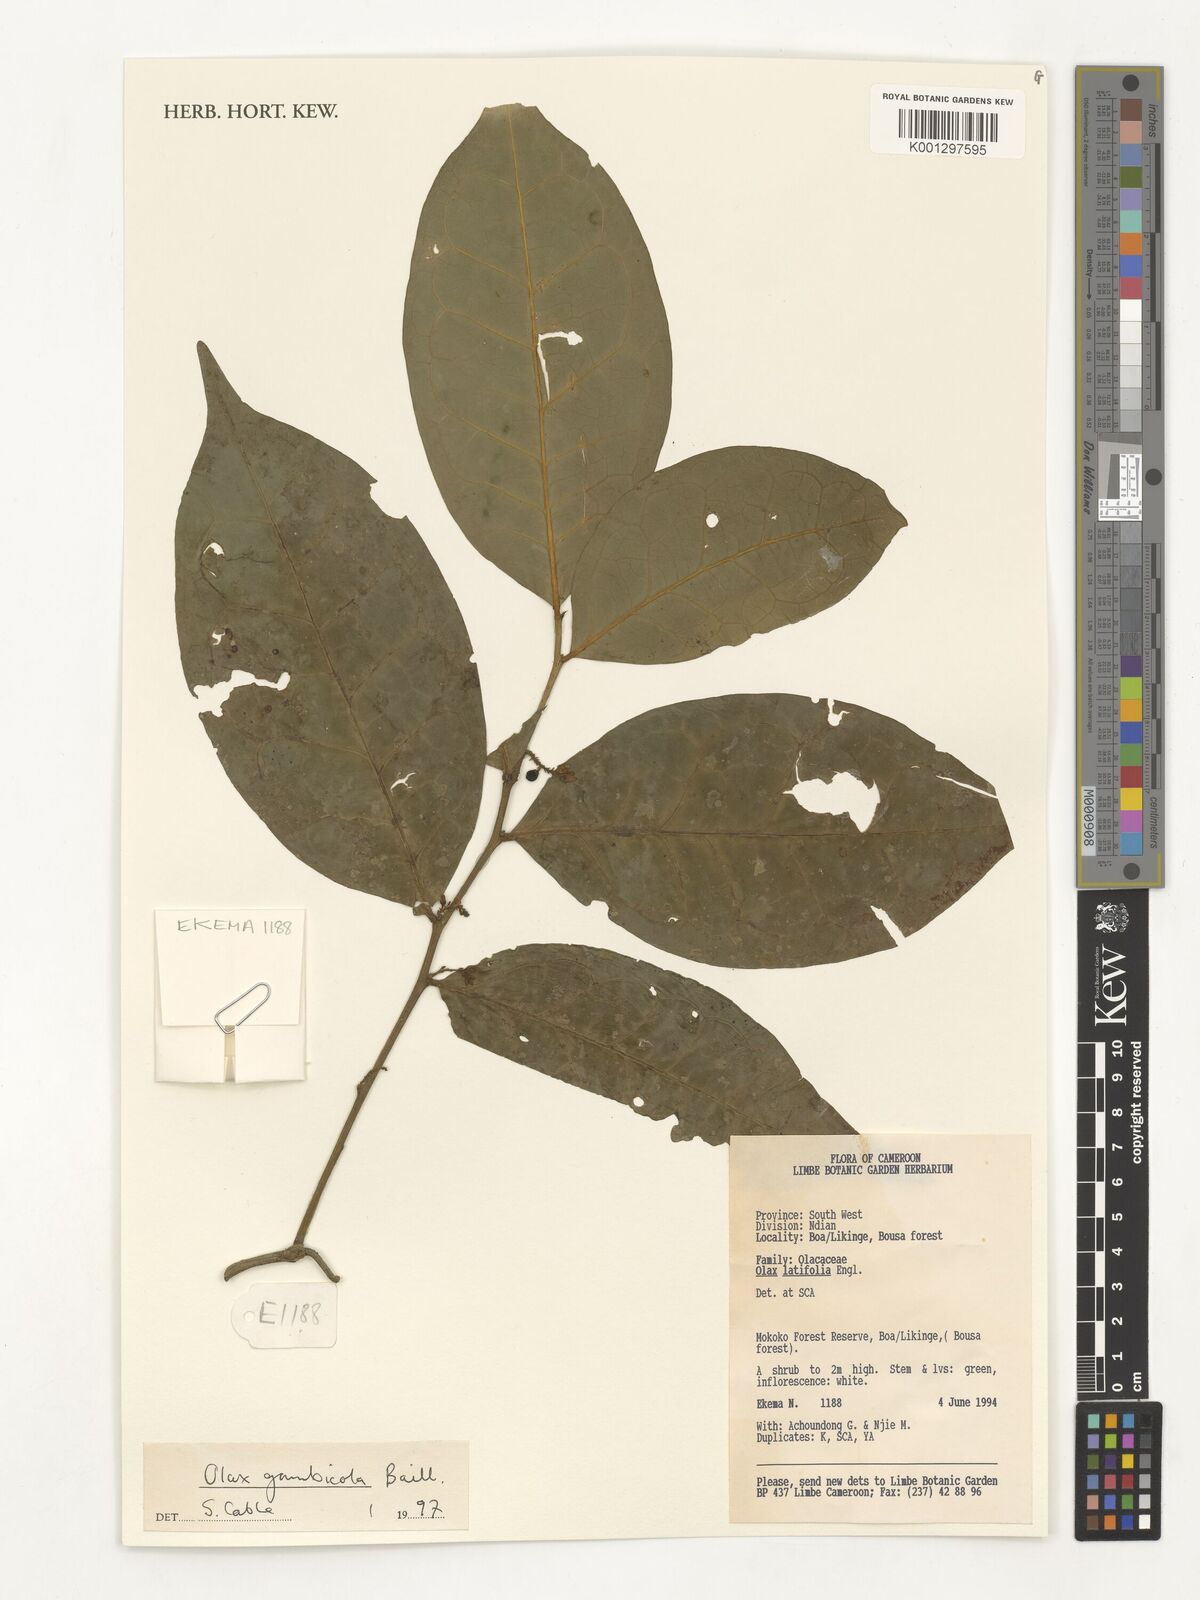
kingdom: Plantae
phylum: Tracheophyta
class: Magnoliopsida
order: Santalales
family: Olacaceae
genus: Olax
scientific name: Olax gambecola
